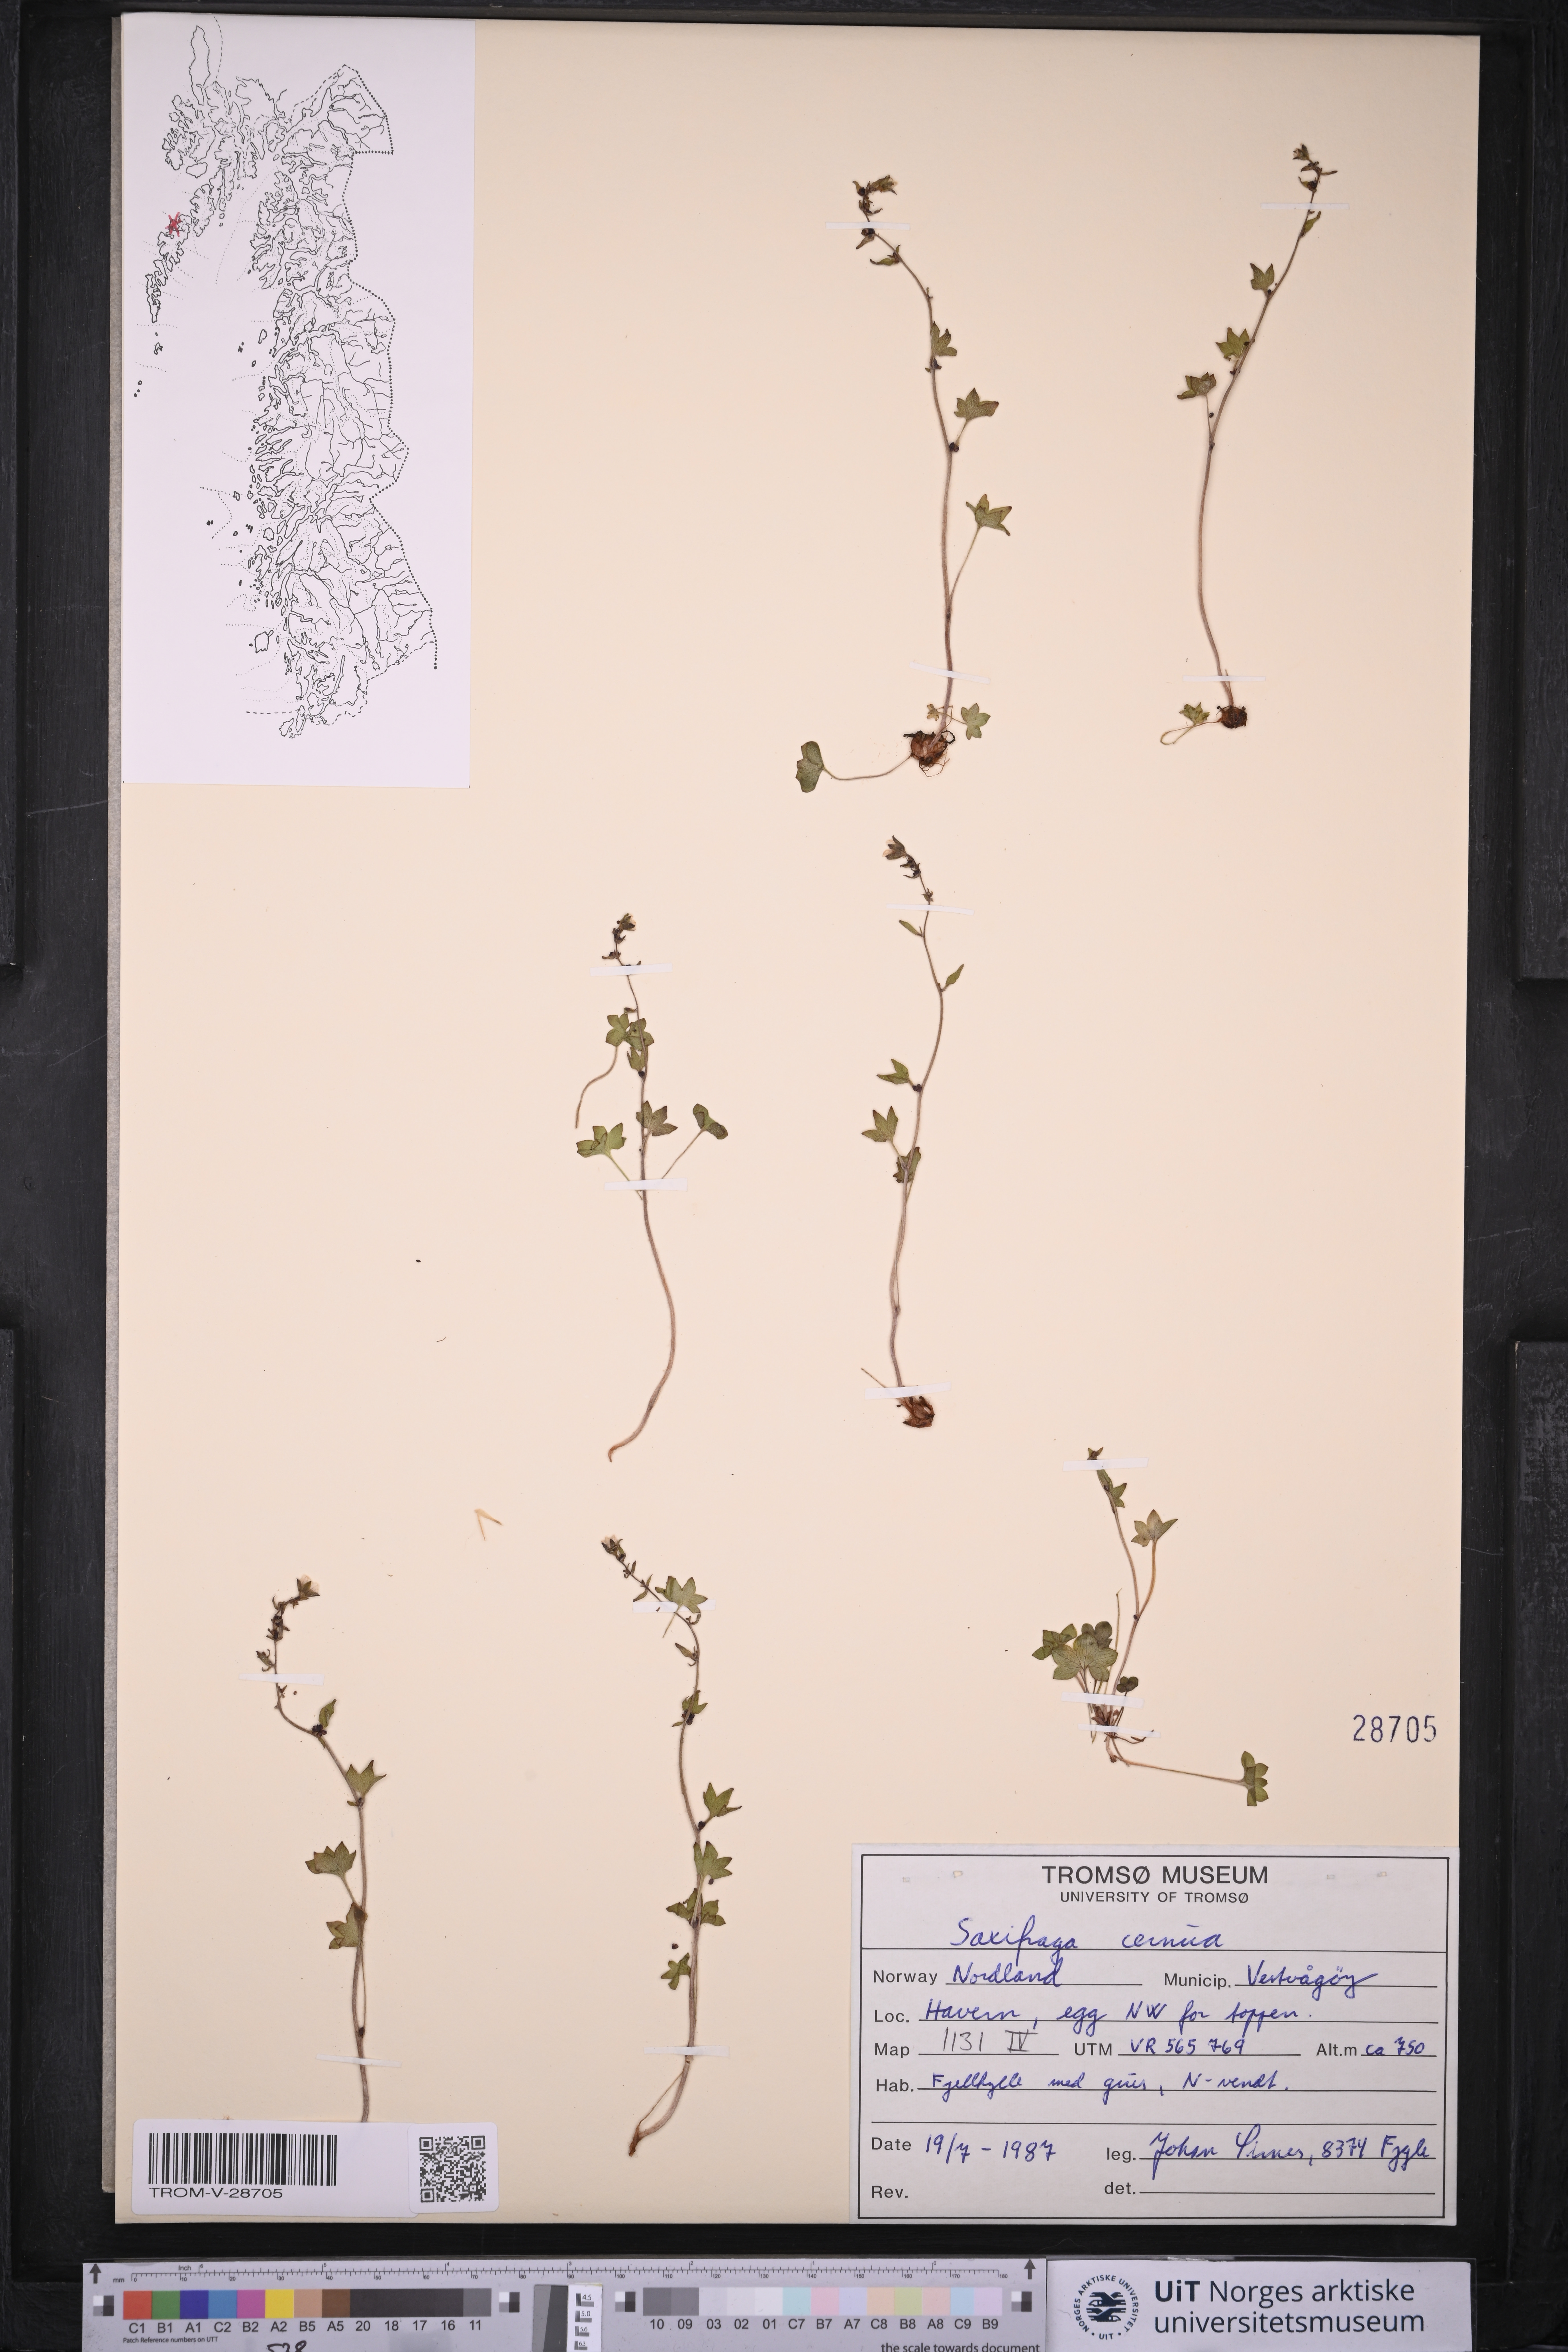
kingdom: Plantae
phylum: Tracheophyta
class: Magnoliopsida
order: Saxifragales
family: Saxifragaceae
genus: Saxifraga
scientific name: Saxifraga cernua
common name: Drooping saxifrage
